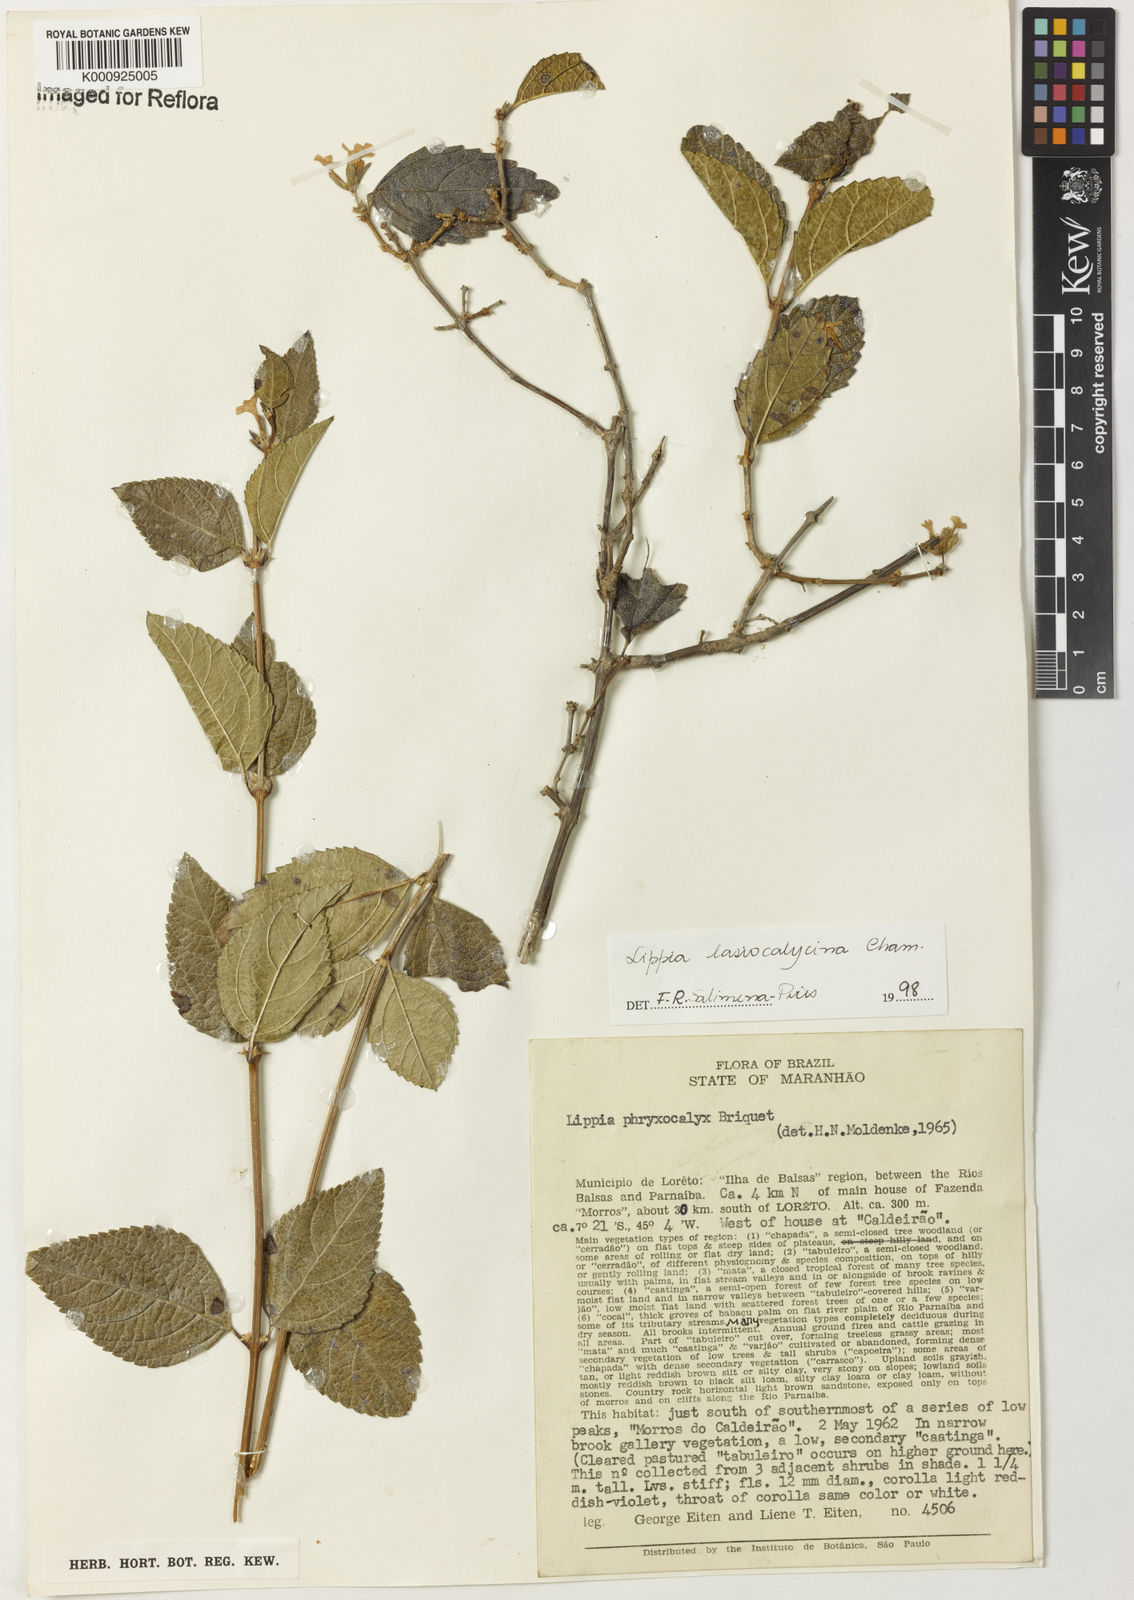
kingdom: Plantae
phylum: Tracheophyta
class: Magnoliopsida
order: Lamiales
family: Verbenaceae
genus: Lippia
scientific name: Lippia lasiocalycina
